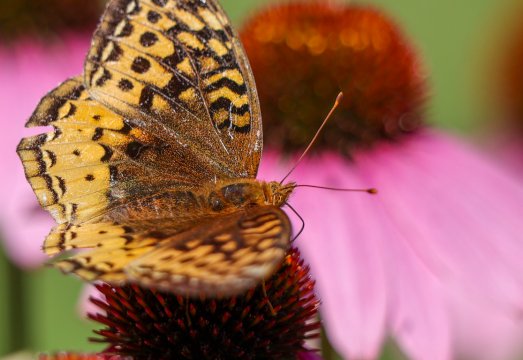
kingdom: Animalia
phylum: Arthropoda
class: Insecta
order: Lepidoptera
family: Nymphalidae
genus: Speyeria
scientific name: Speyeria cybele
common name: Great Spangled Fritillary
